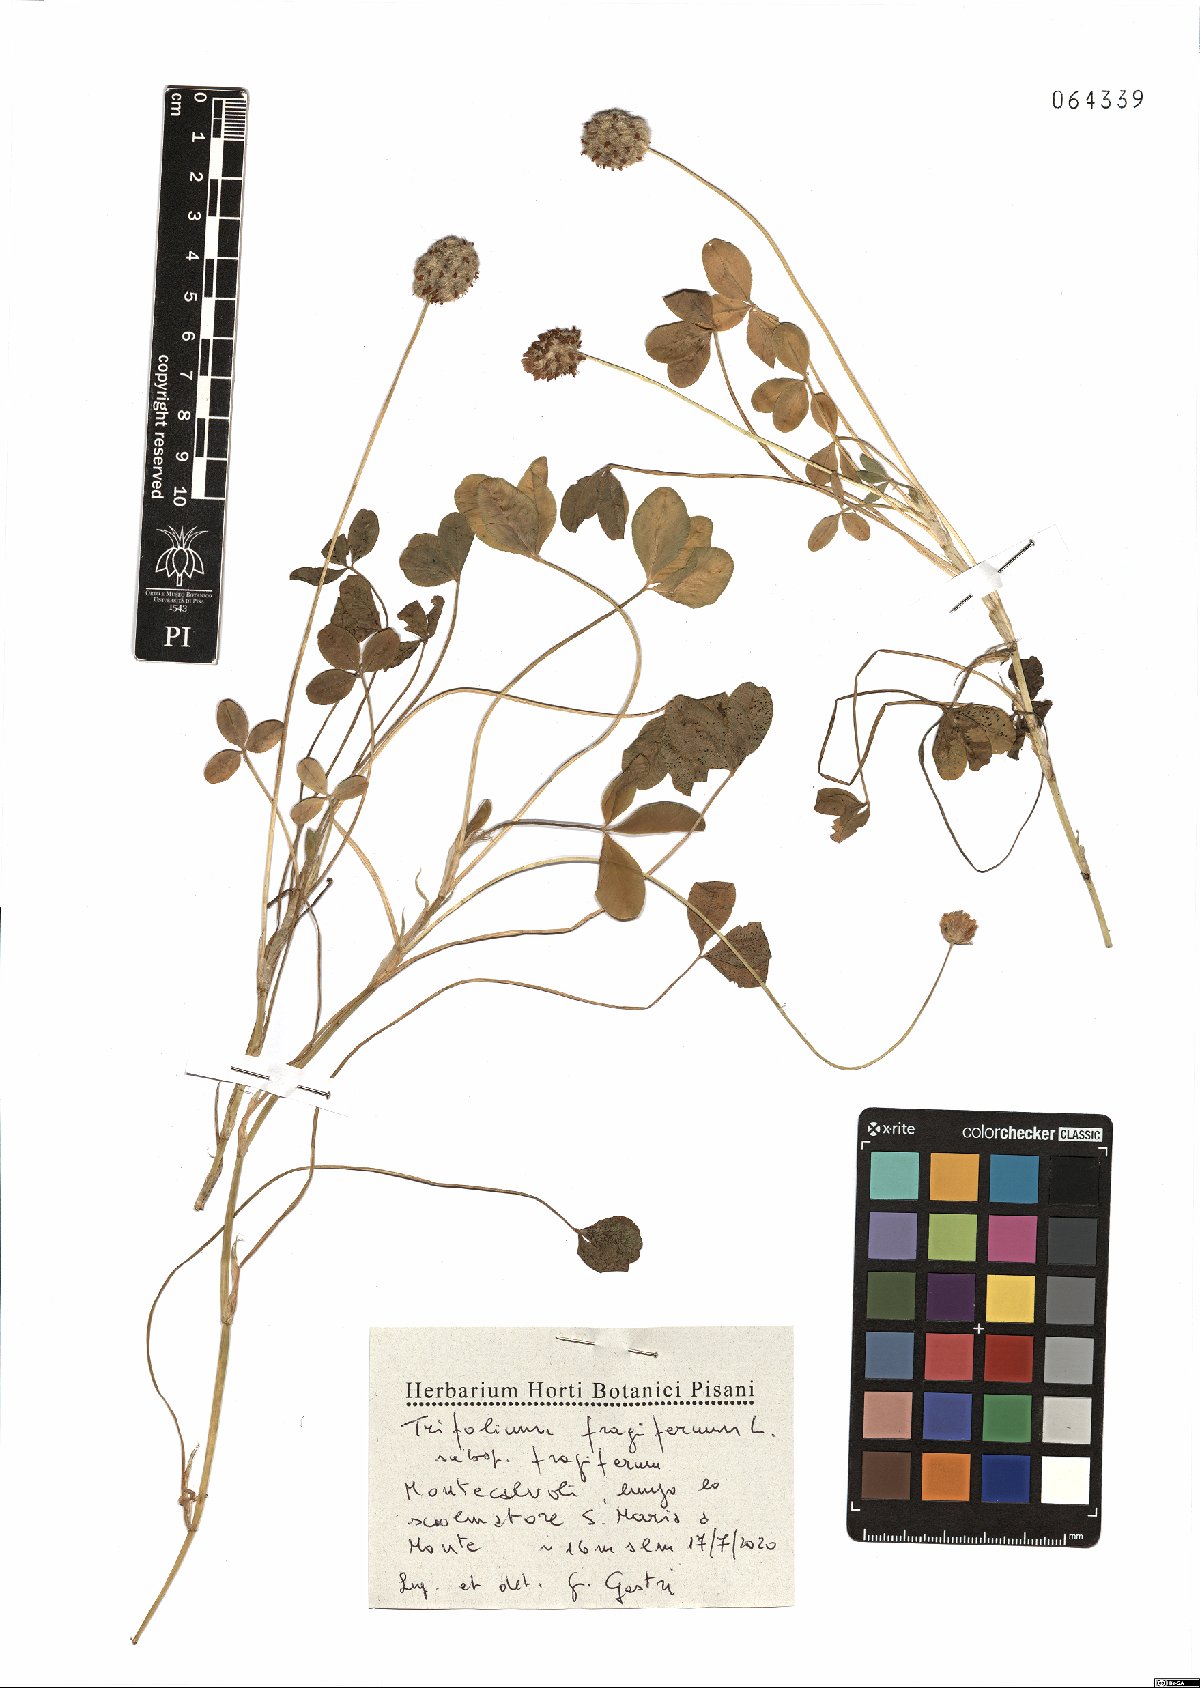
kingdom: Plantae
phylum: Tracheophyta
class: Magnoliopsida
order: Fabales
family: Fabaceae
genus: Trifolium
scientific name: Trifolium fragiferum
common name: Strawberry clover
